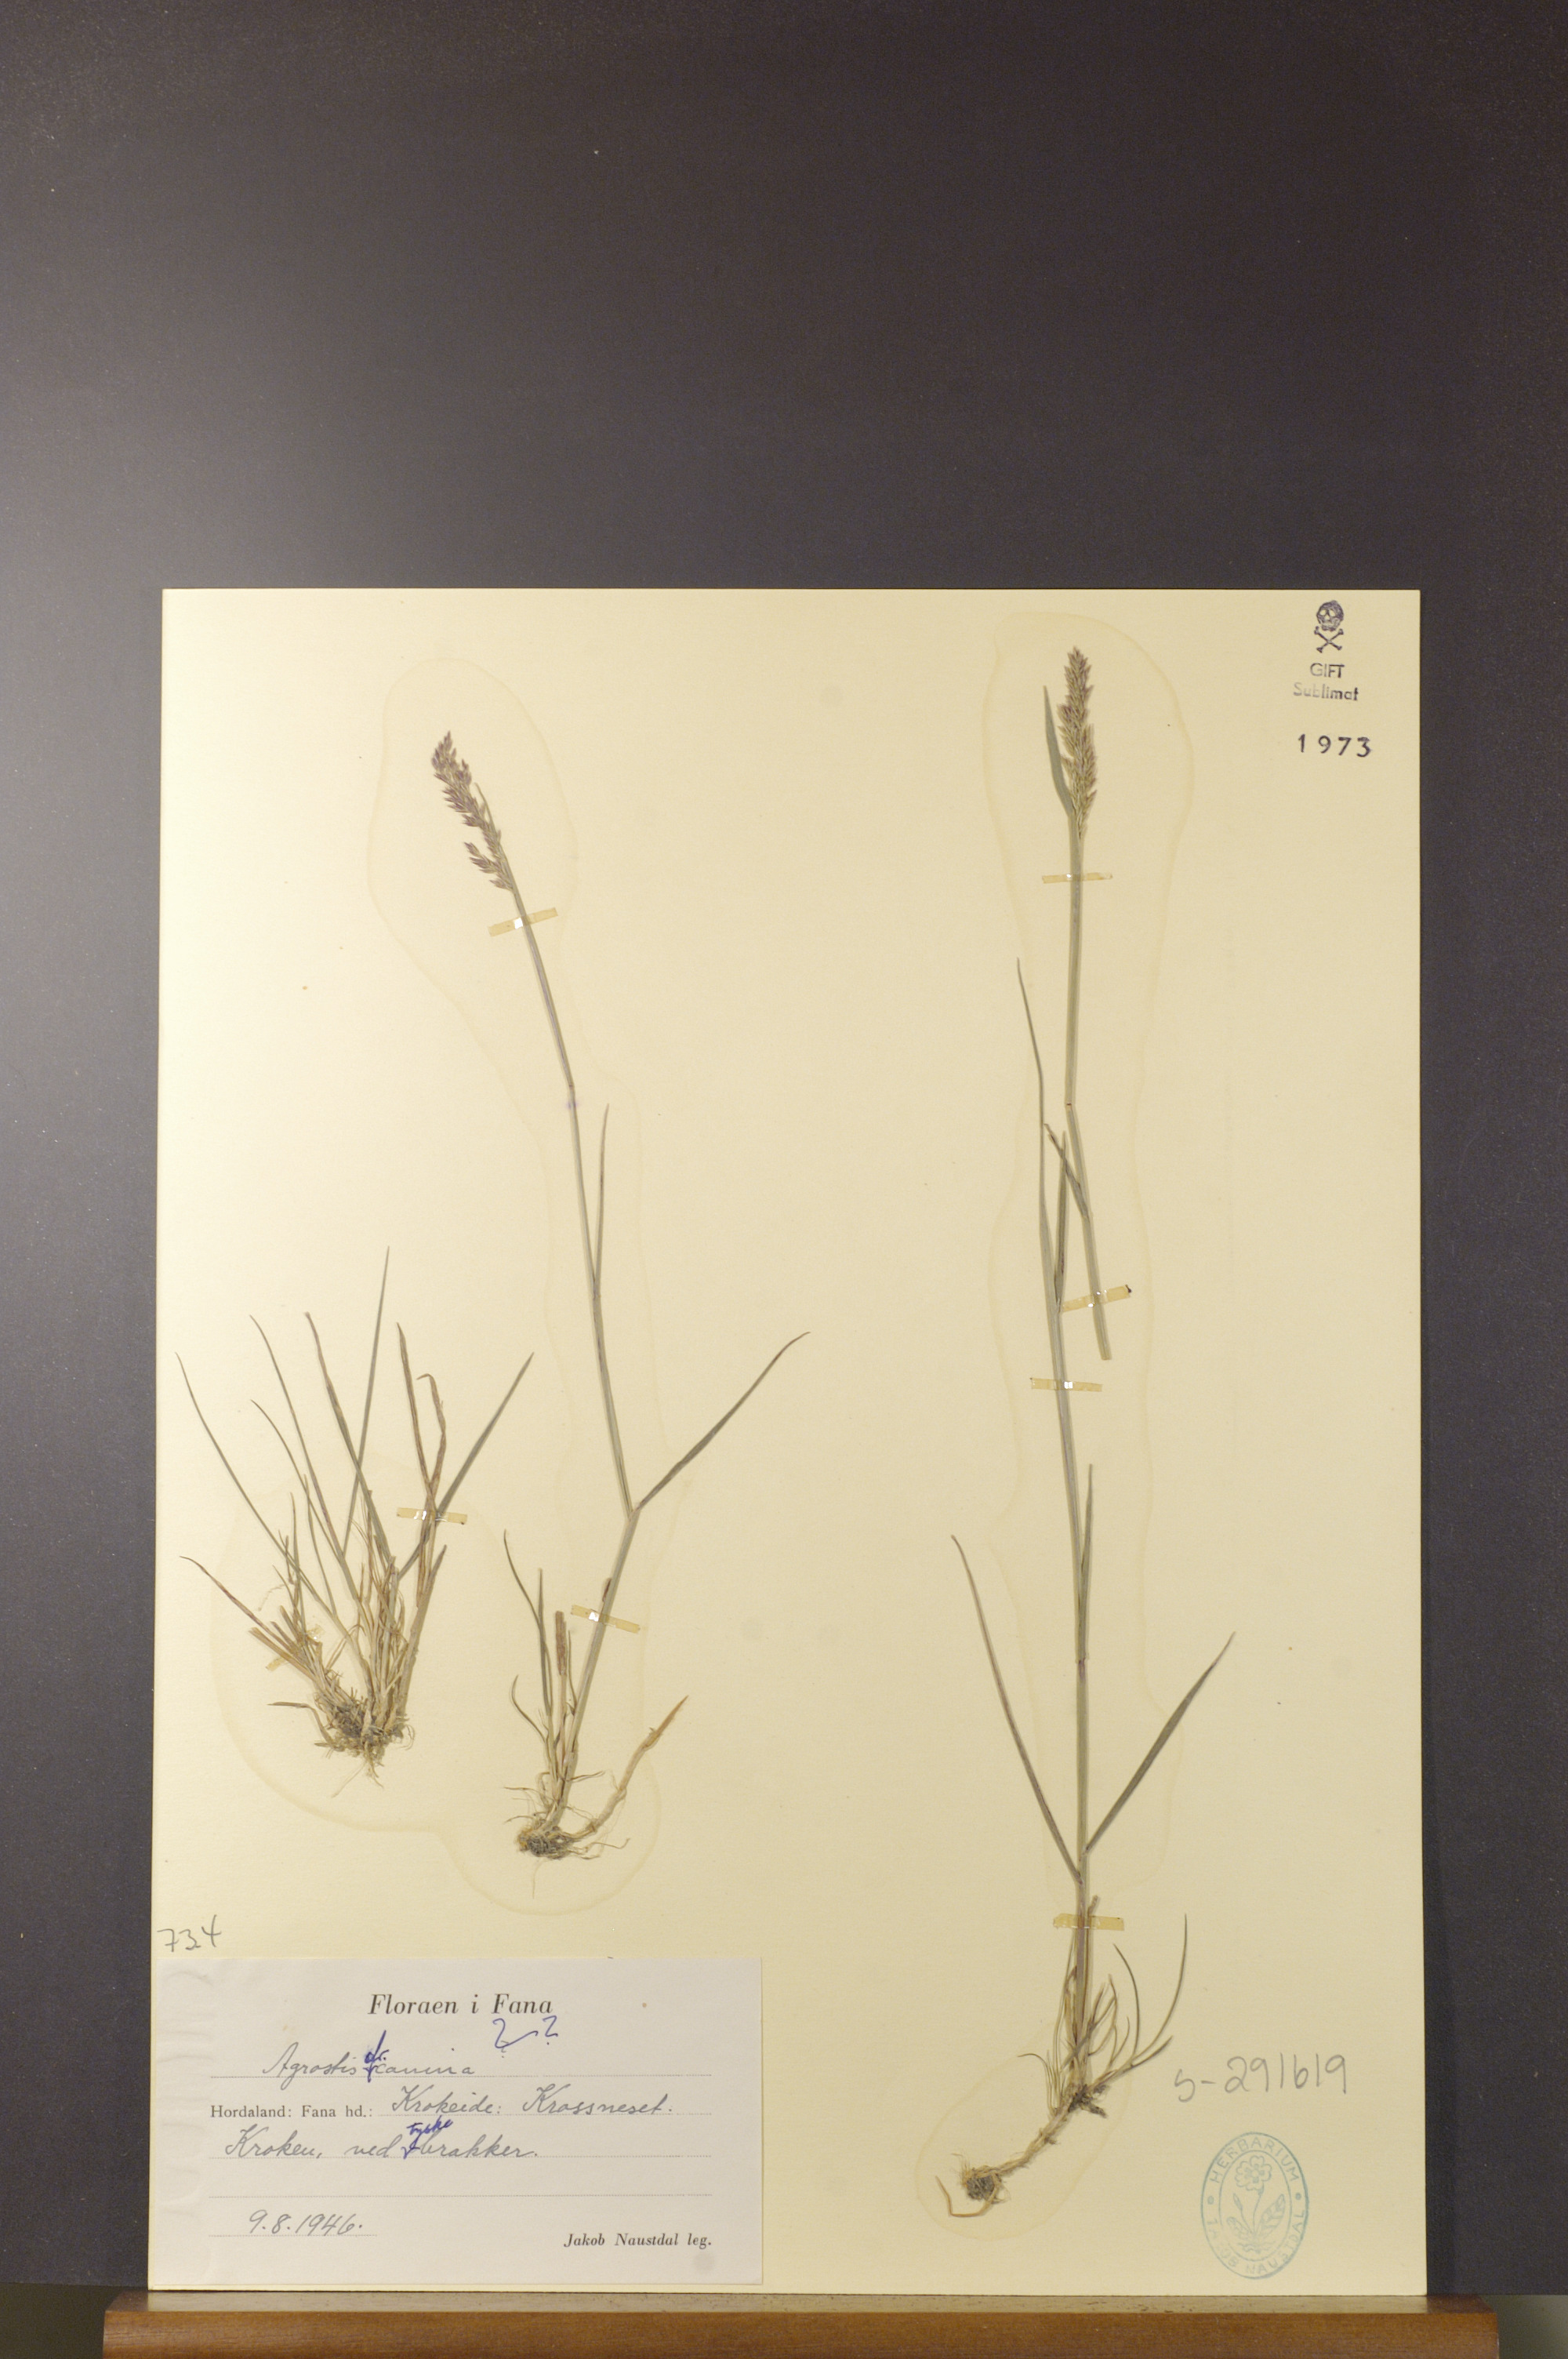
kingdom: Plantae
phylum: Tracheophyta
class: Liliopsida
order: Poales
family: Poaceae
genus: Agrostis
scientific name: Agrostis canina
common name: Velvet bent
